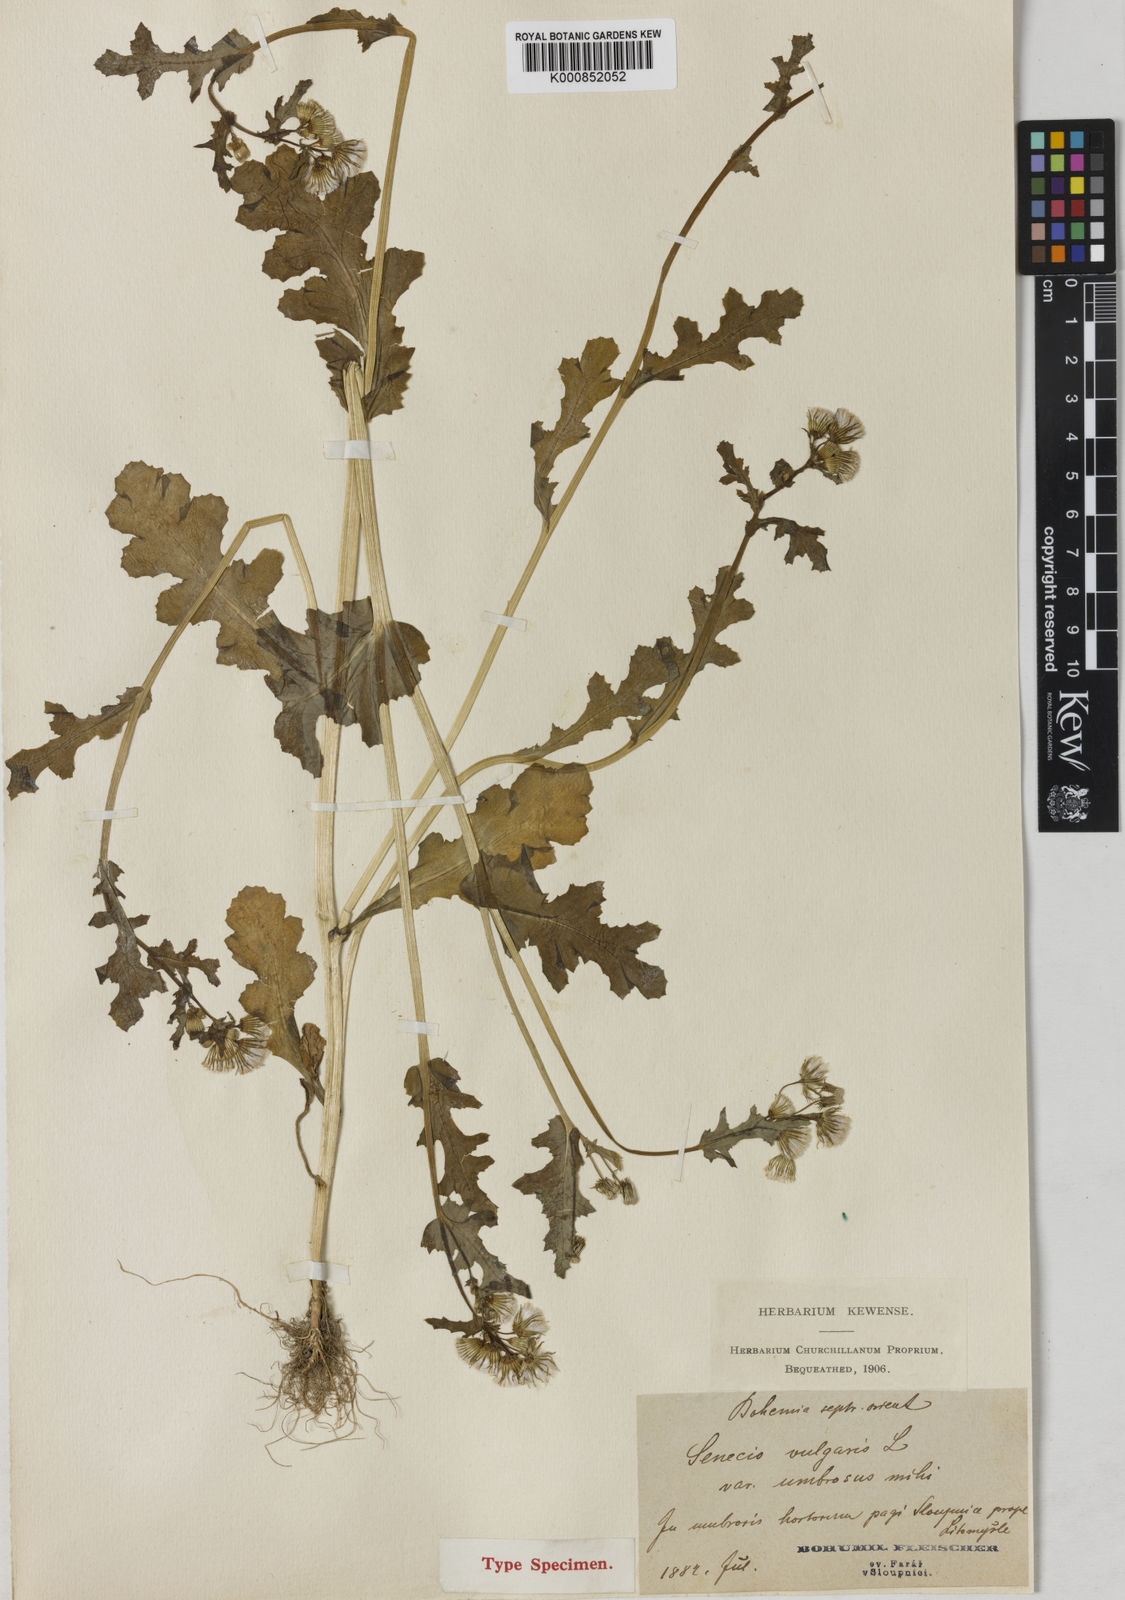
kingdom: Plantae
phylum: Tracheophyta
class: Magnoliopsida
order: Asterales
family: Asteraceae
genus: Senecio
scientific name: Senecio vulgaris
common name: Old-man-in-the-spring
